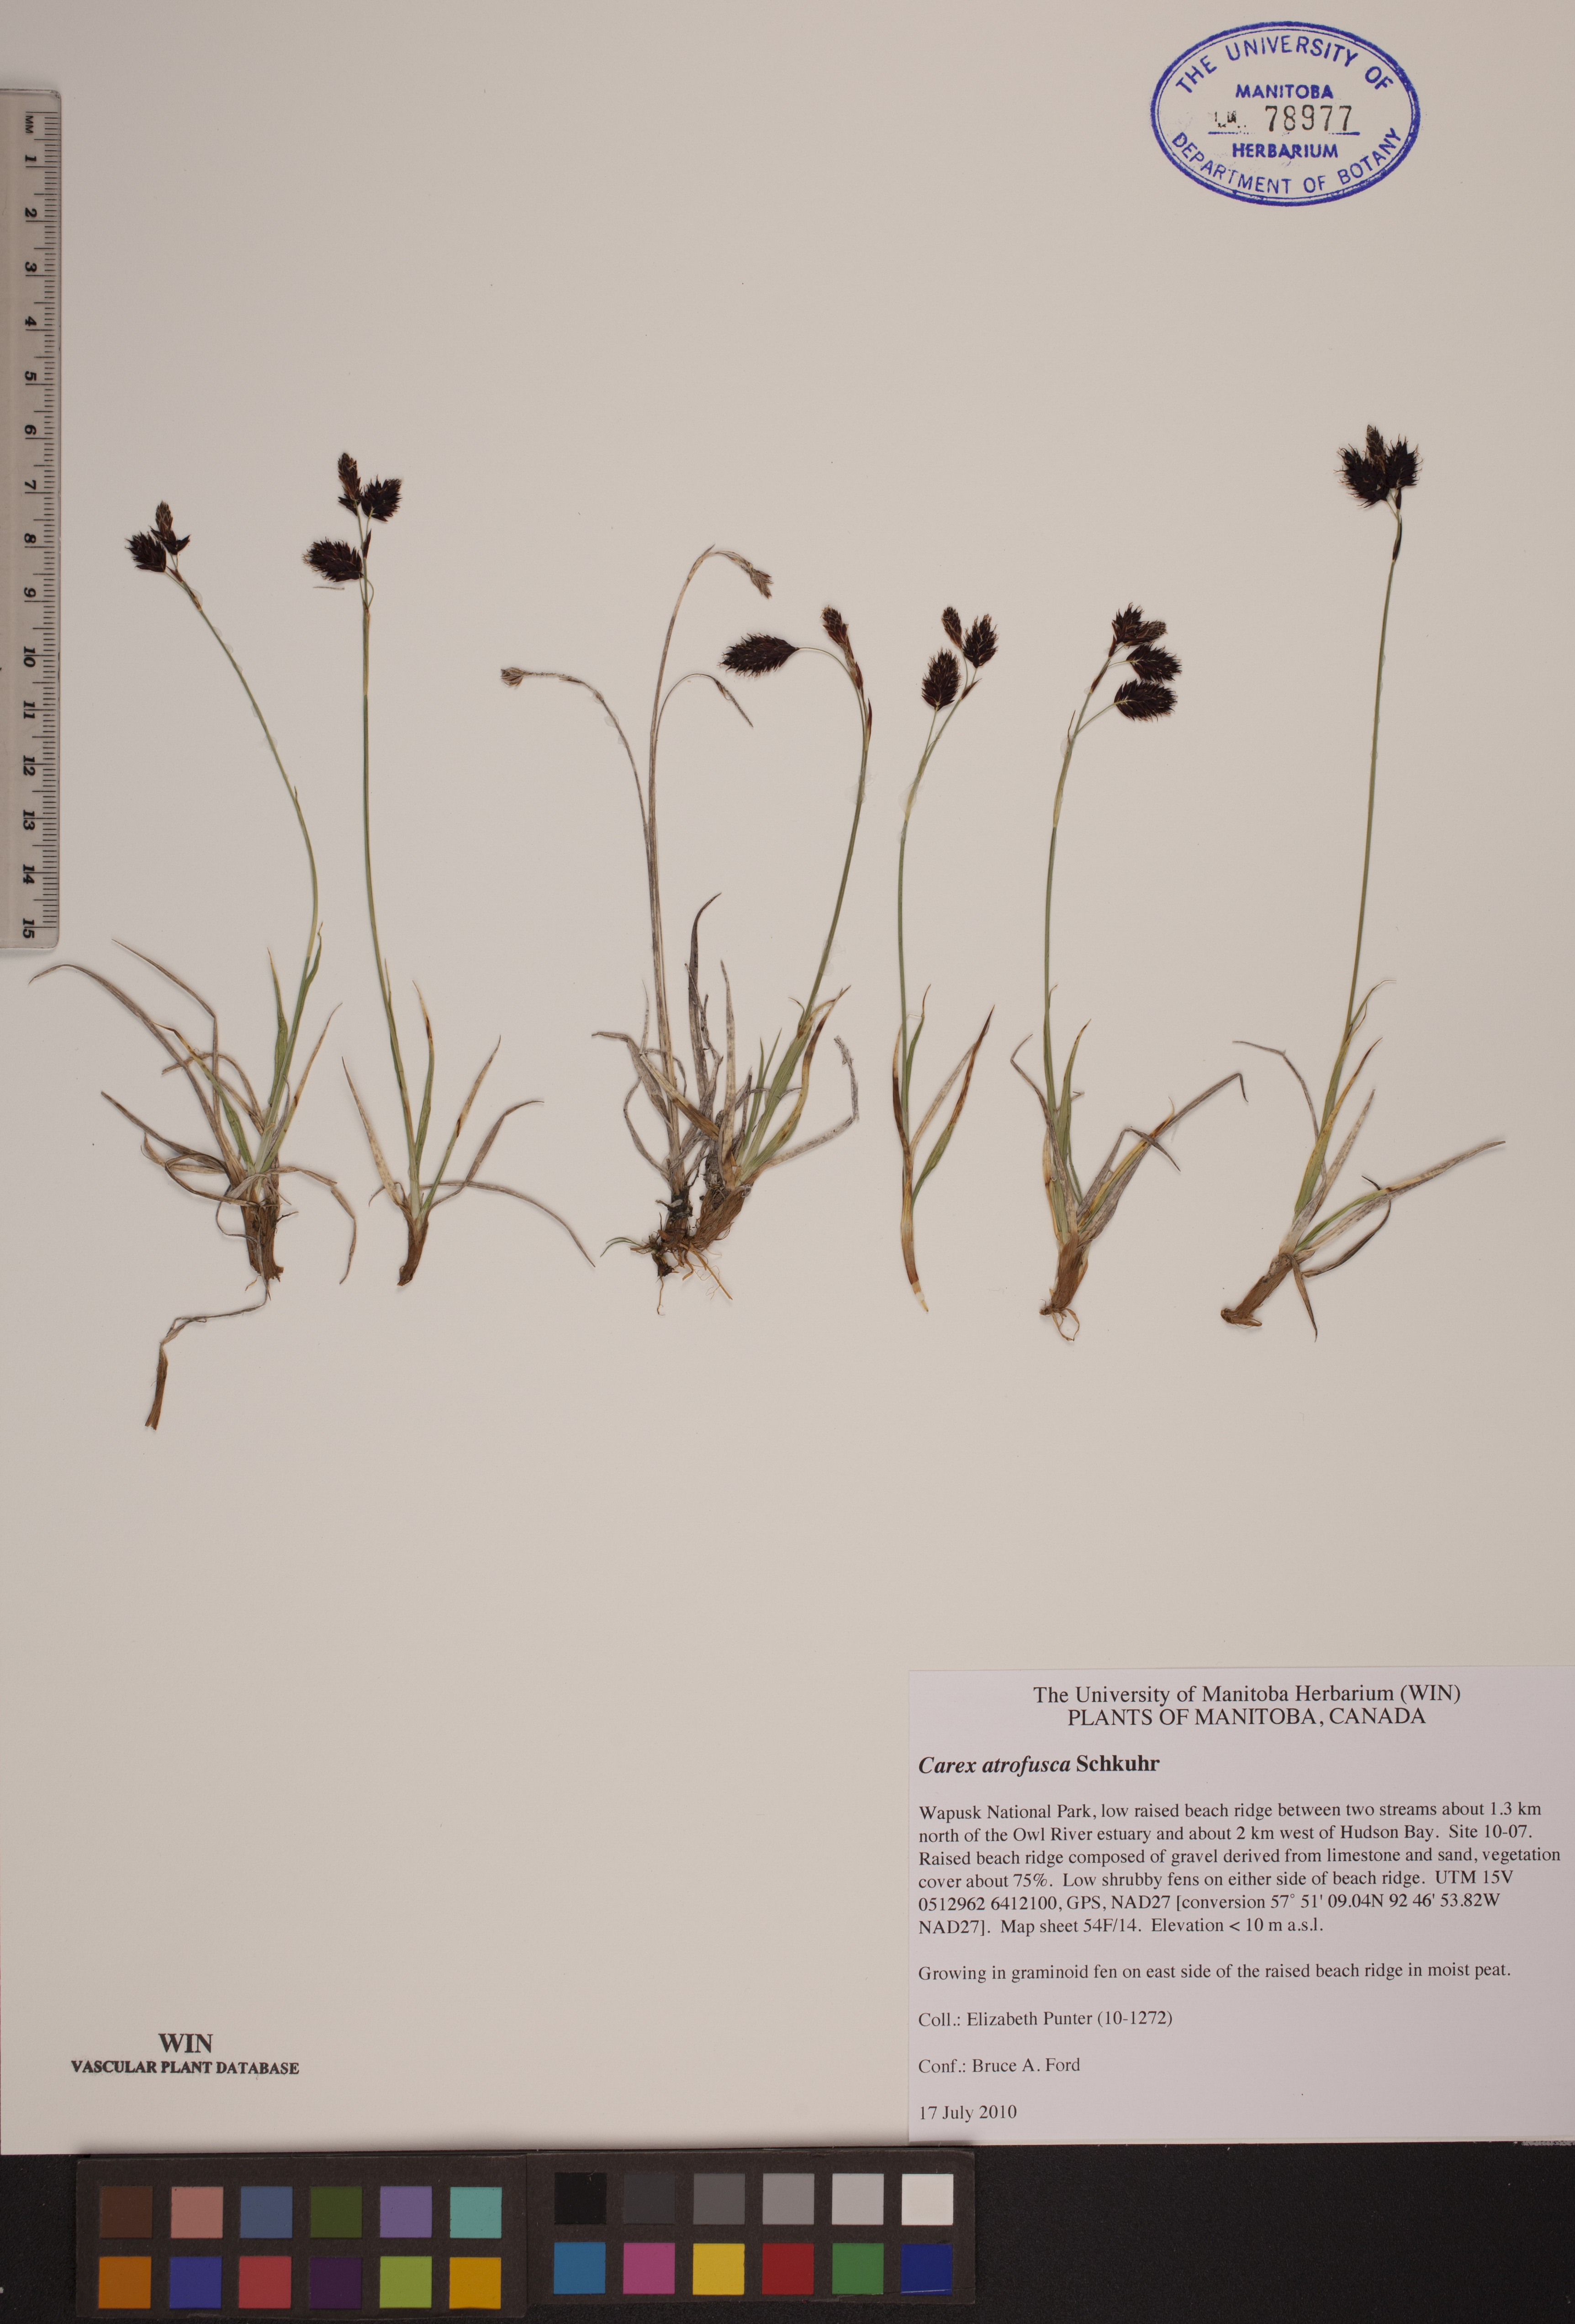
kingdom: Plantae
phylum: Tracheophyta
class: Liliopsida
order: Poales
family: Cyperaceae
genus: Carex
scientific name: Carex pichinchensis
